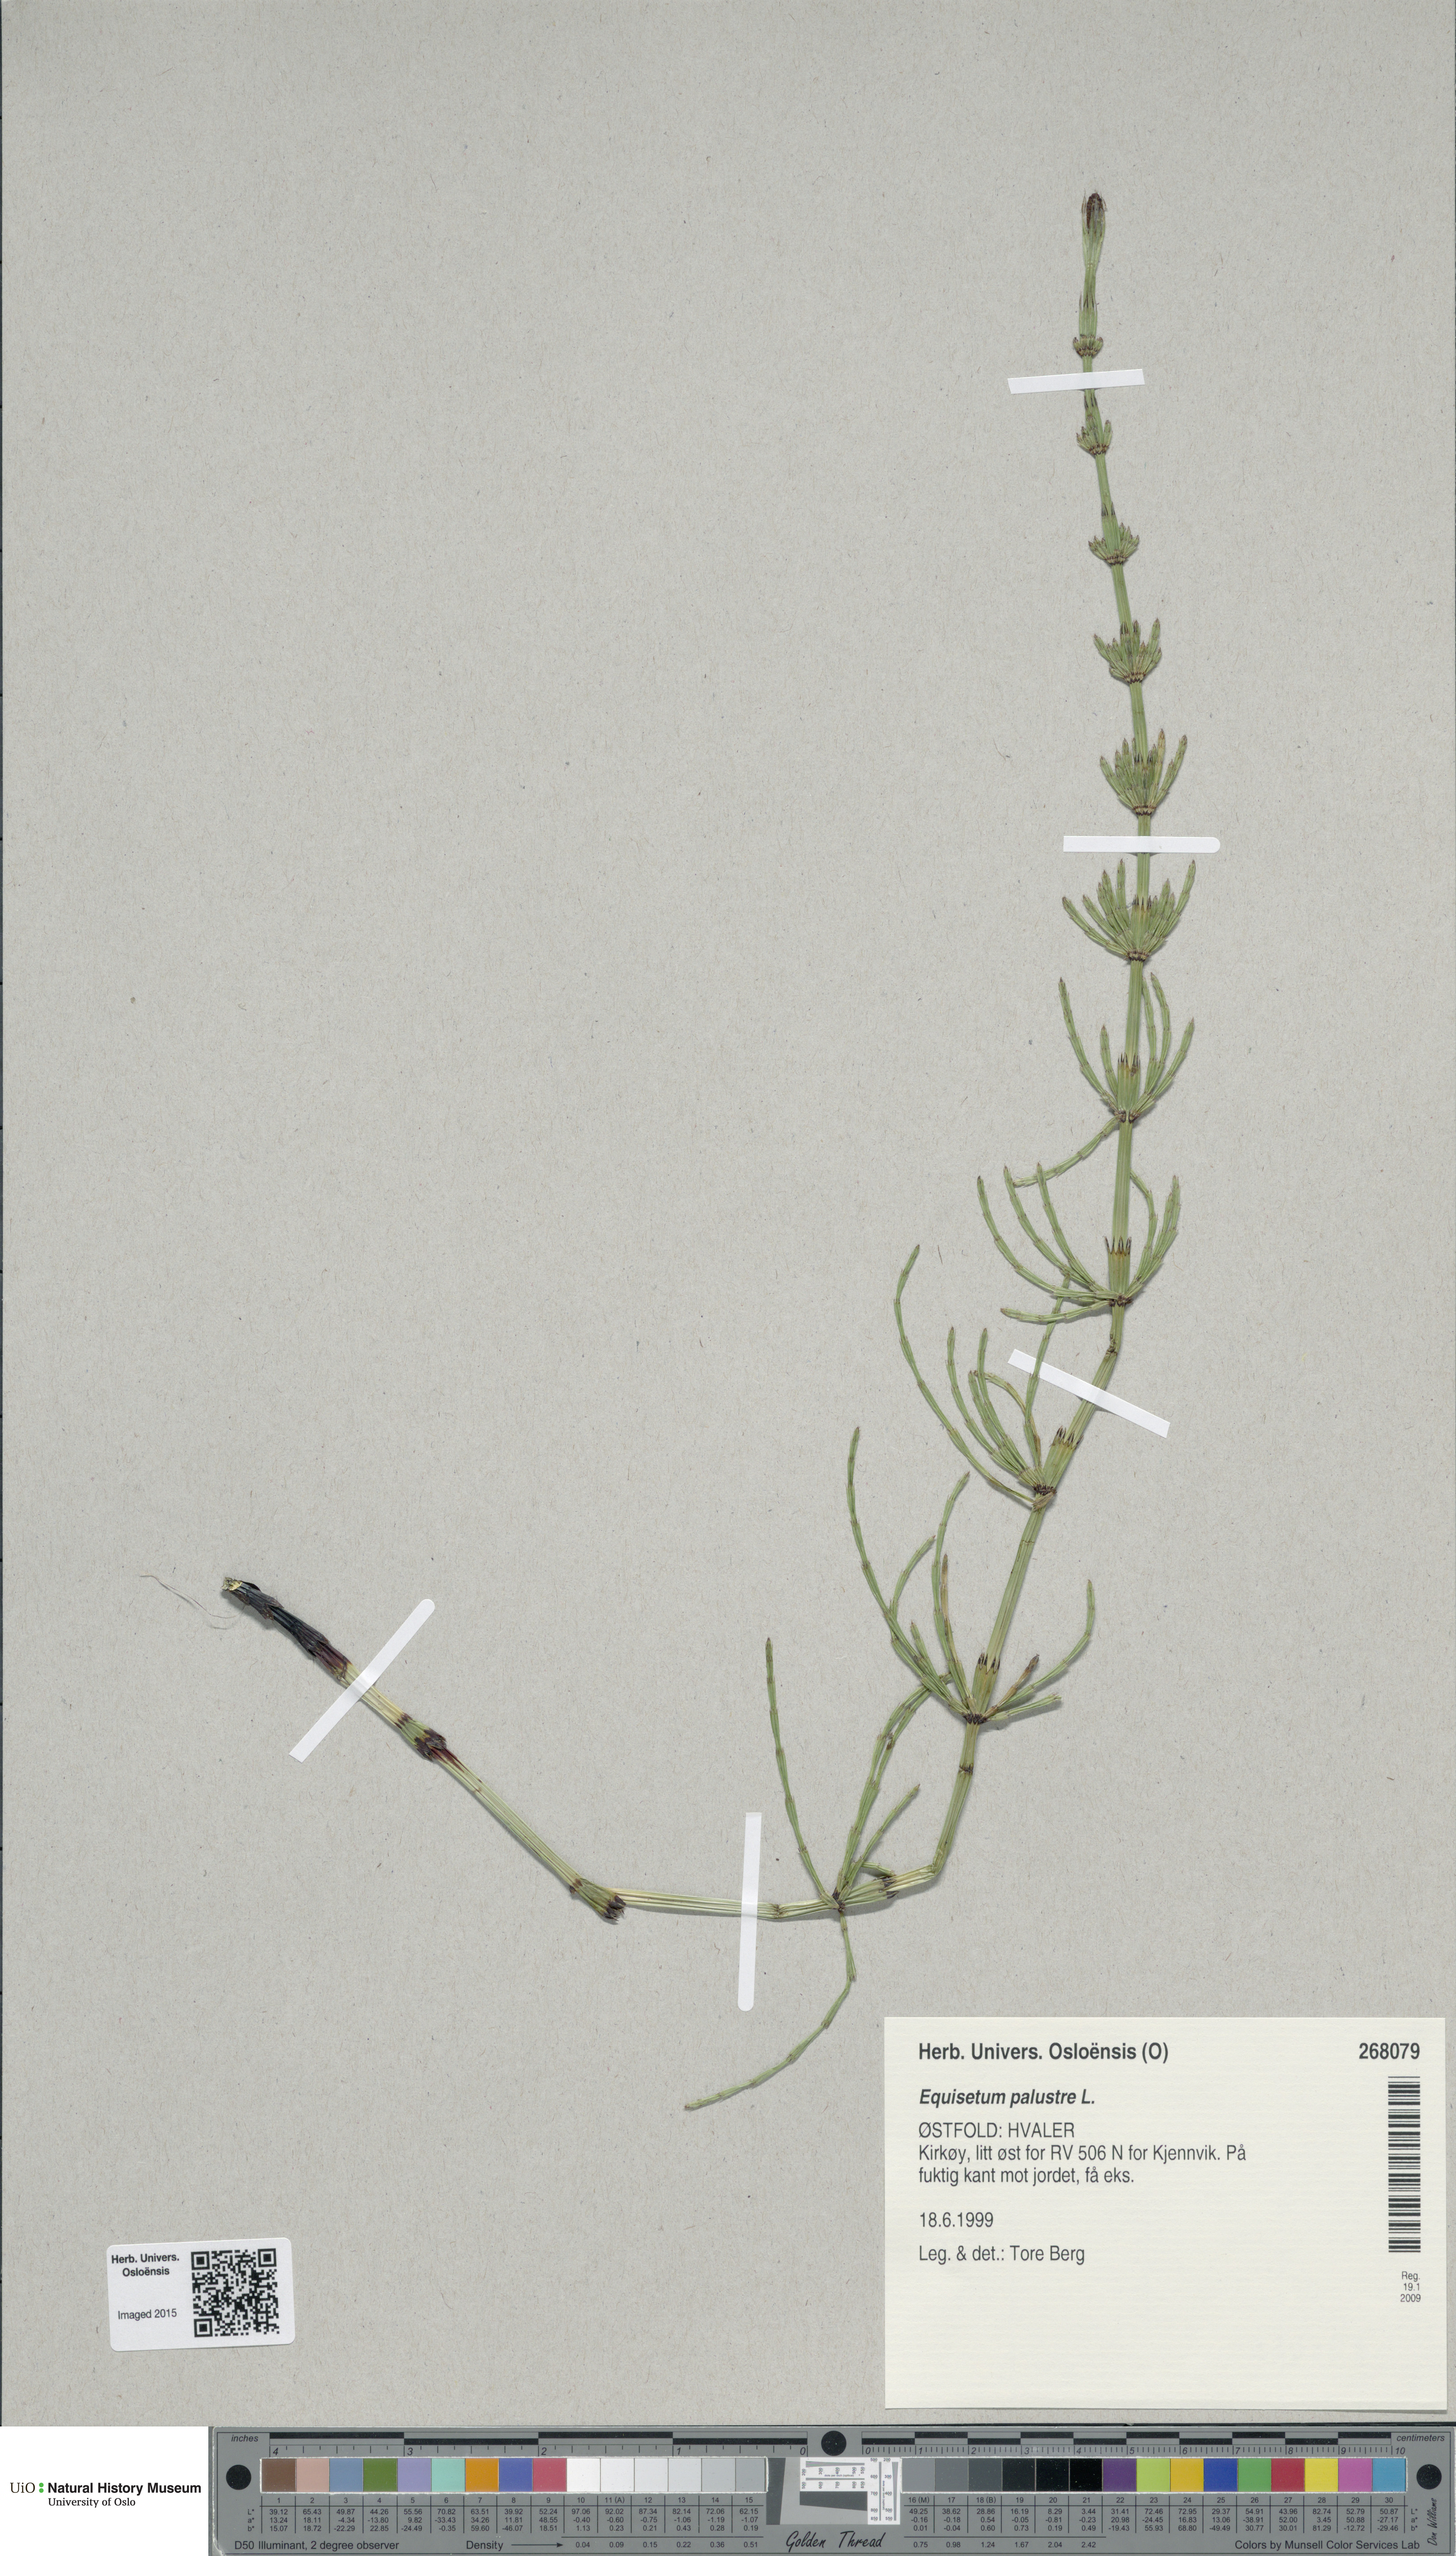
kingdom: Plantae
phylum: Tracheophyta
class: Polypodiopsida
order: Equisetales
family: Equisetaceae
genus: Equisetum
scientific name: Equisetum palustre
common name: Marsh horsetail
